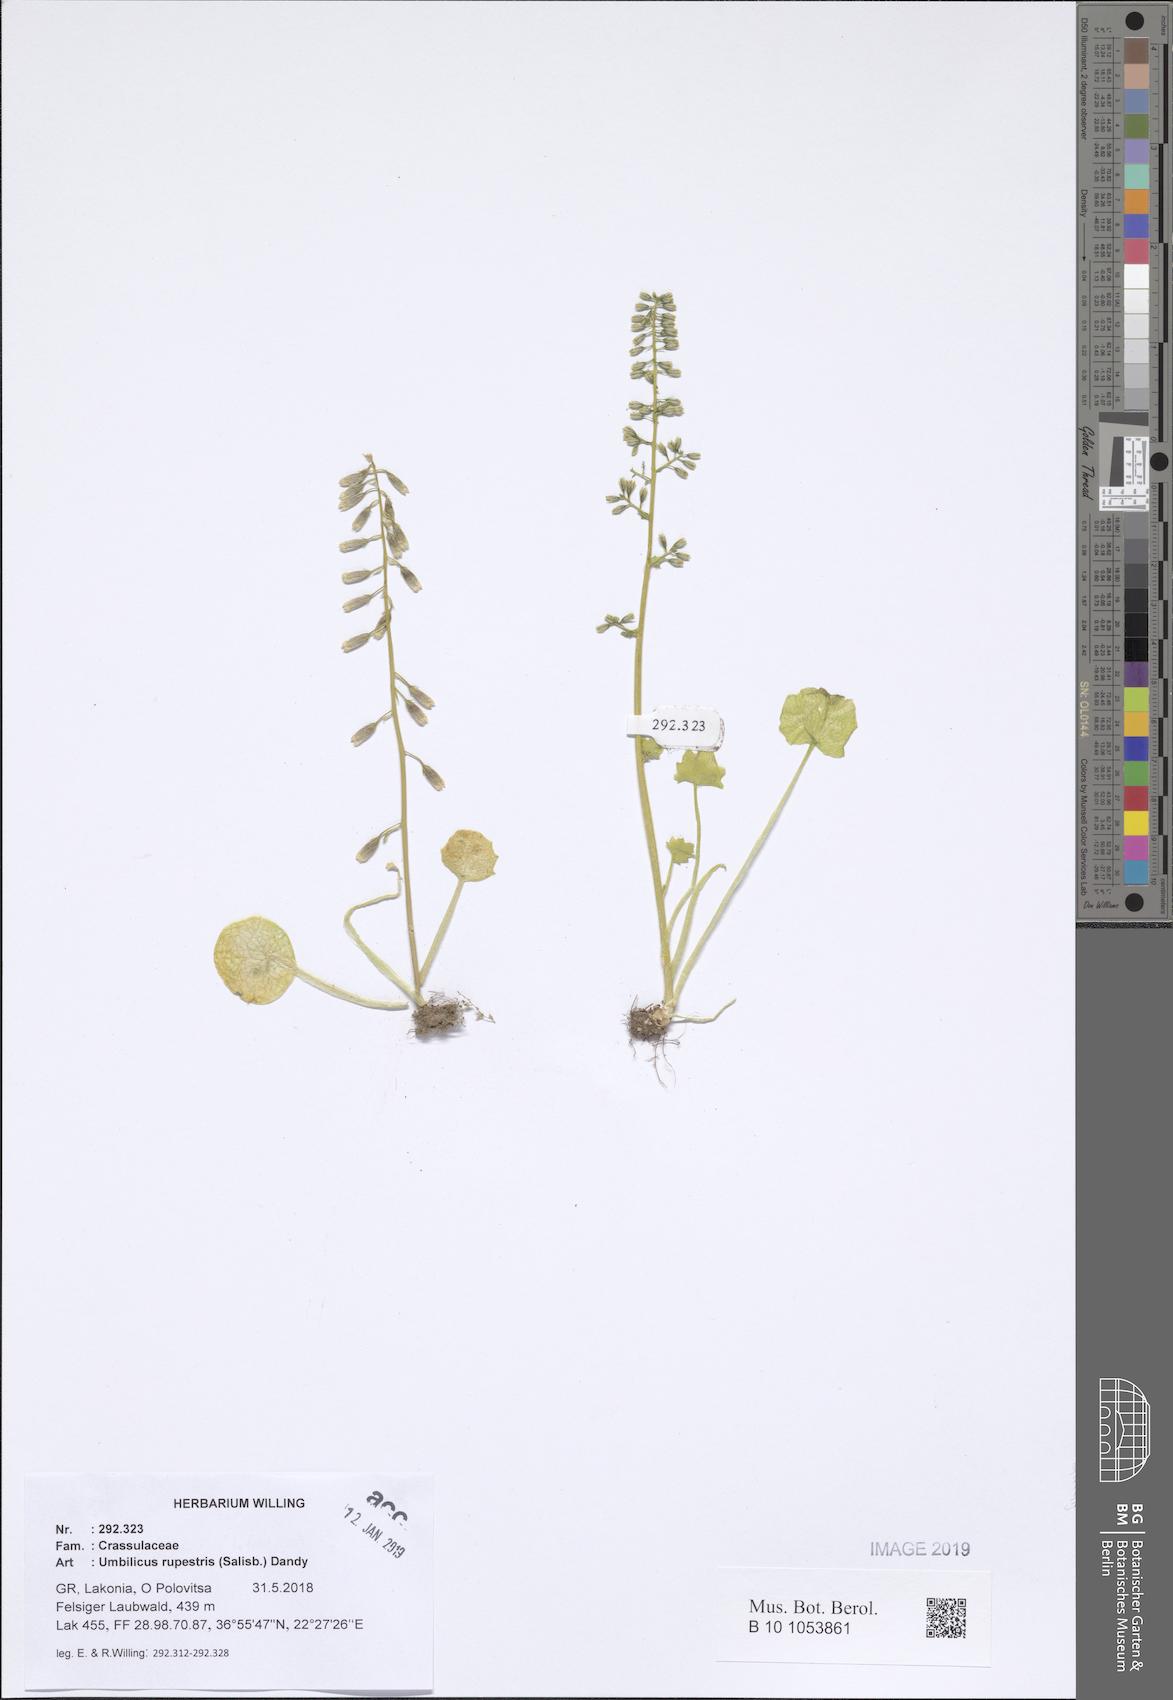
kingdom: Plantae
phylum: Tracheophyta
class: Magnoliopsida
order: Saxifragales
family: Crassulaceae
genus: Umbilicus
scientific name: Umbilicus rupestris
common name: Navelwort
